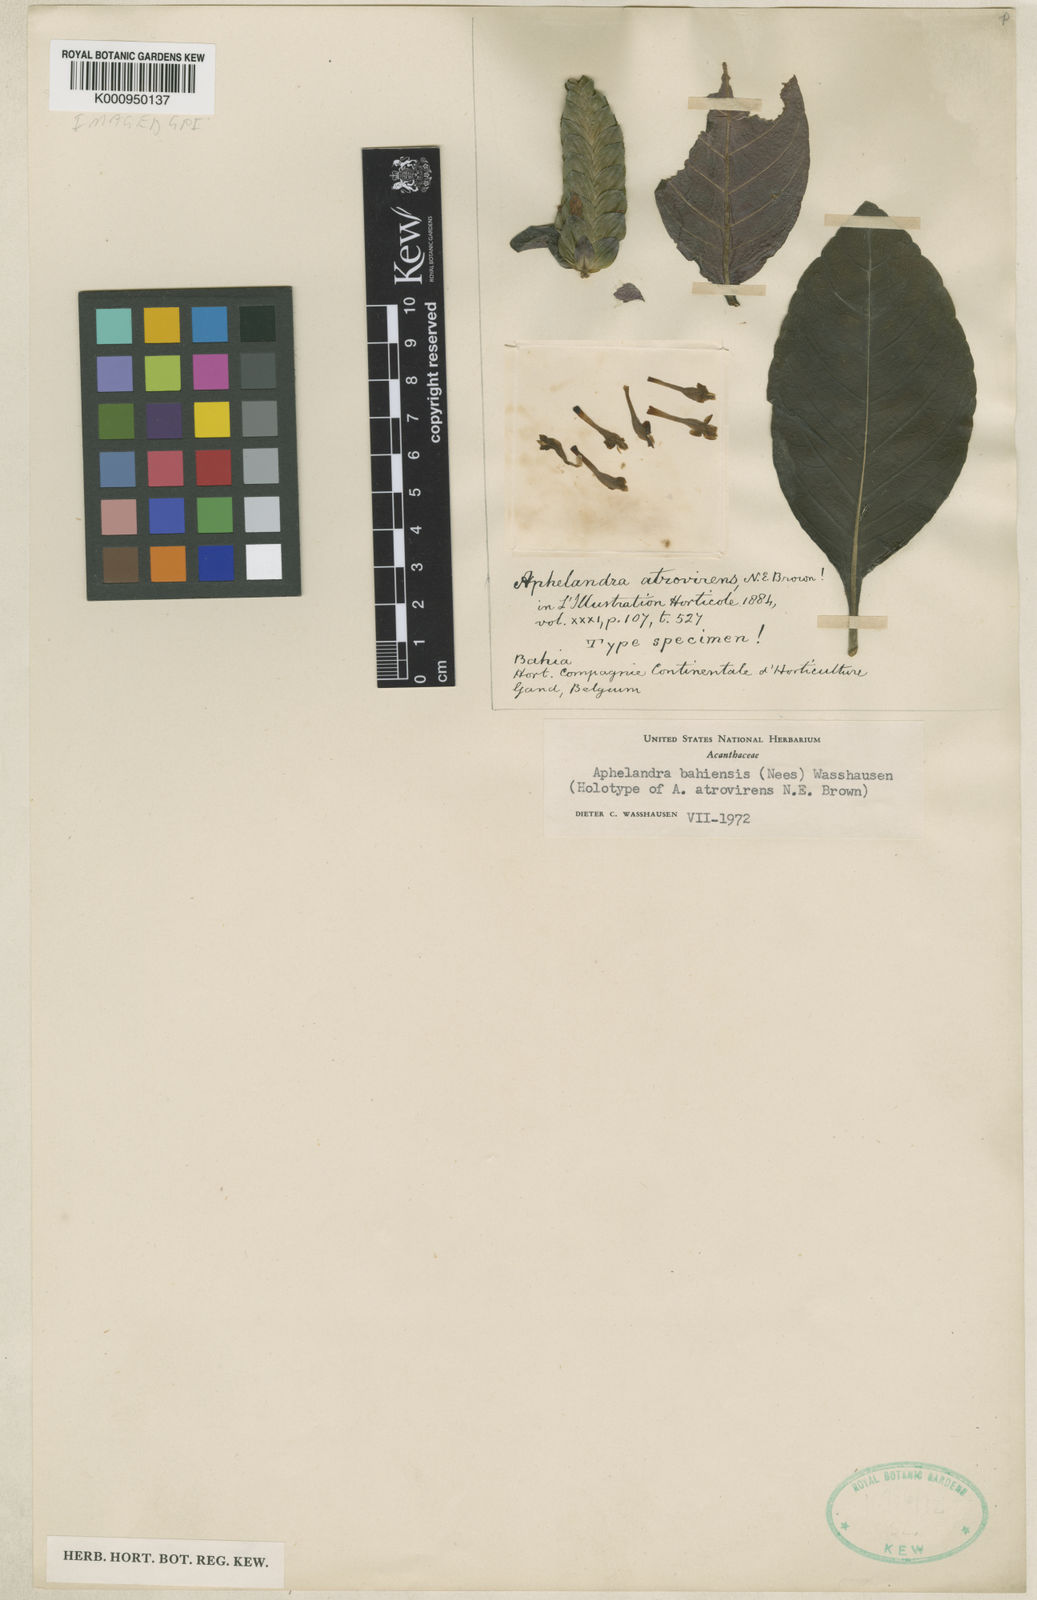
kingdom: Plantae
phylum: Tracheophyta
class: Magnoliopsida
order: Lamiales
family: Acanthaceae
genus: Aphelandra
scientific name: Aphelandra bahiensis
